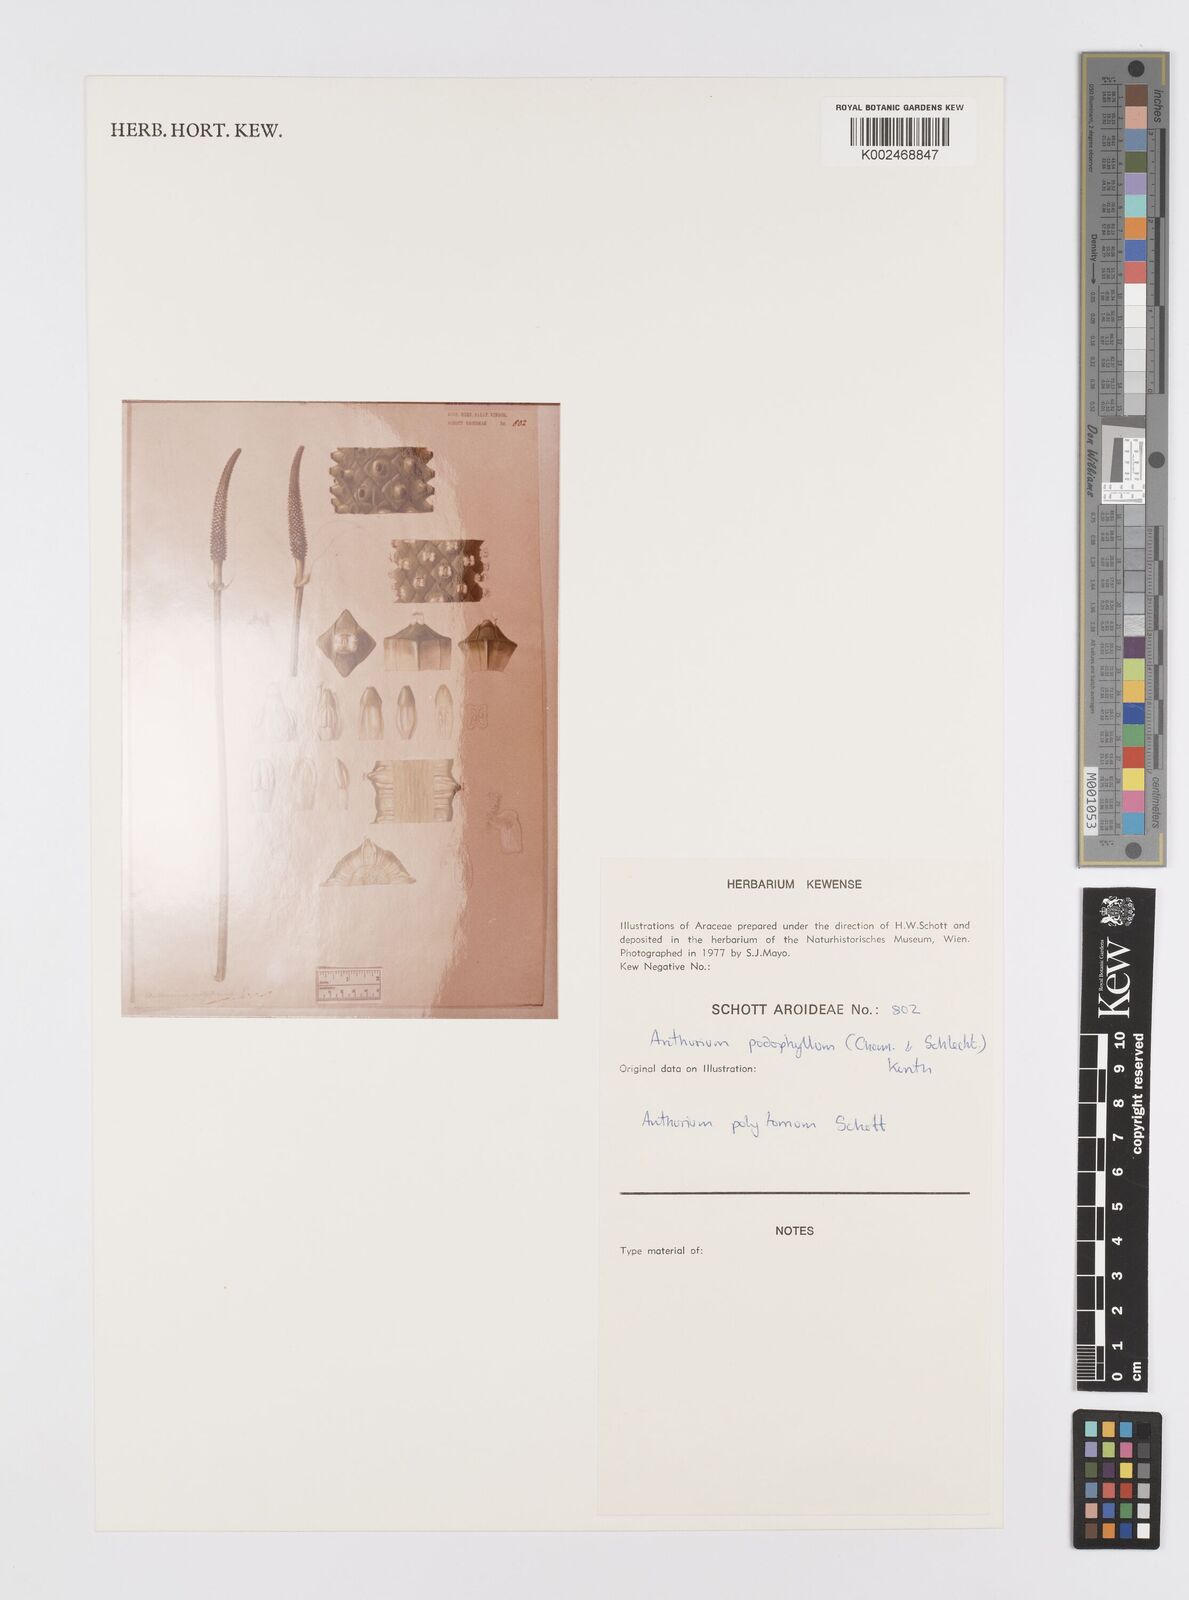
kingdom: Plantae
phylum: Tracheophyta
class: Liliopsida
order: Alismatales
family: Araceae
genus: Anthurium
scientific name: Anthurium podophyllum
